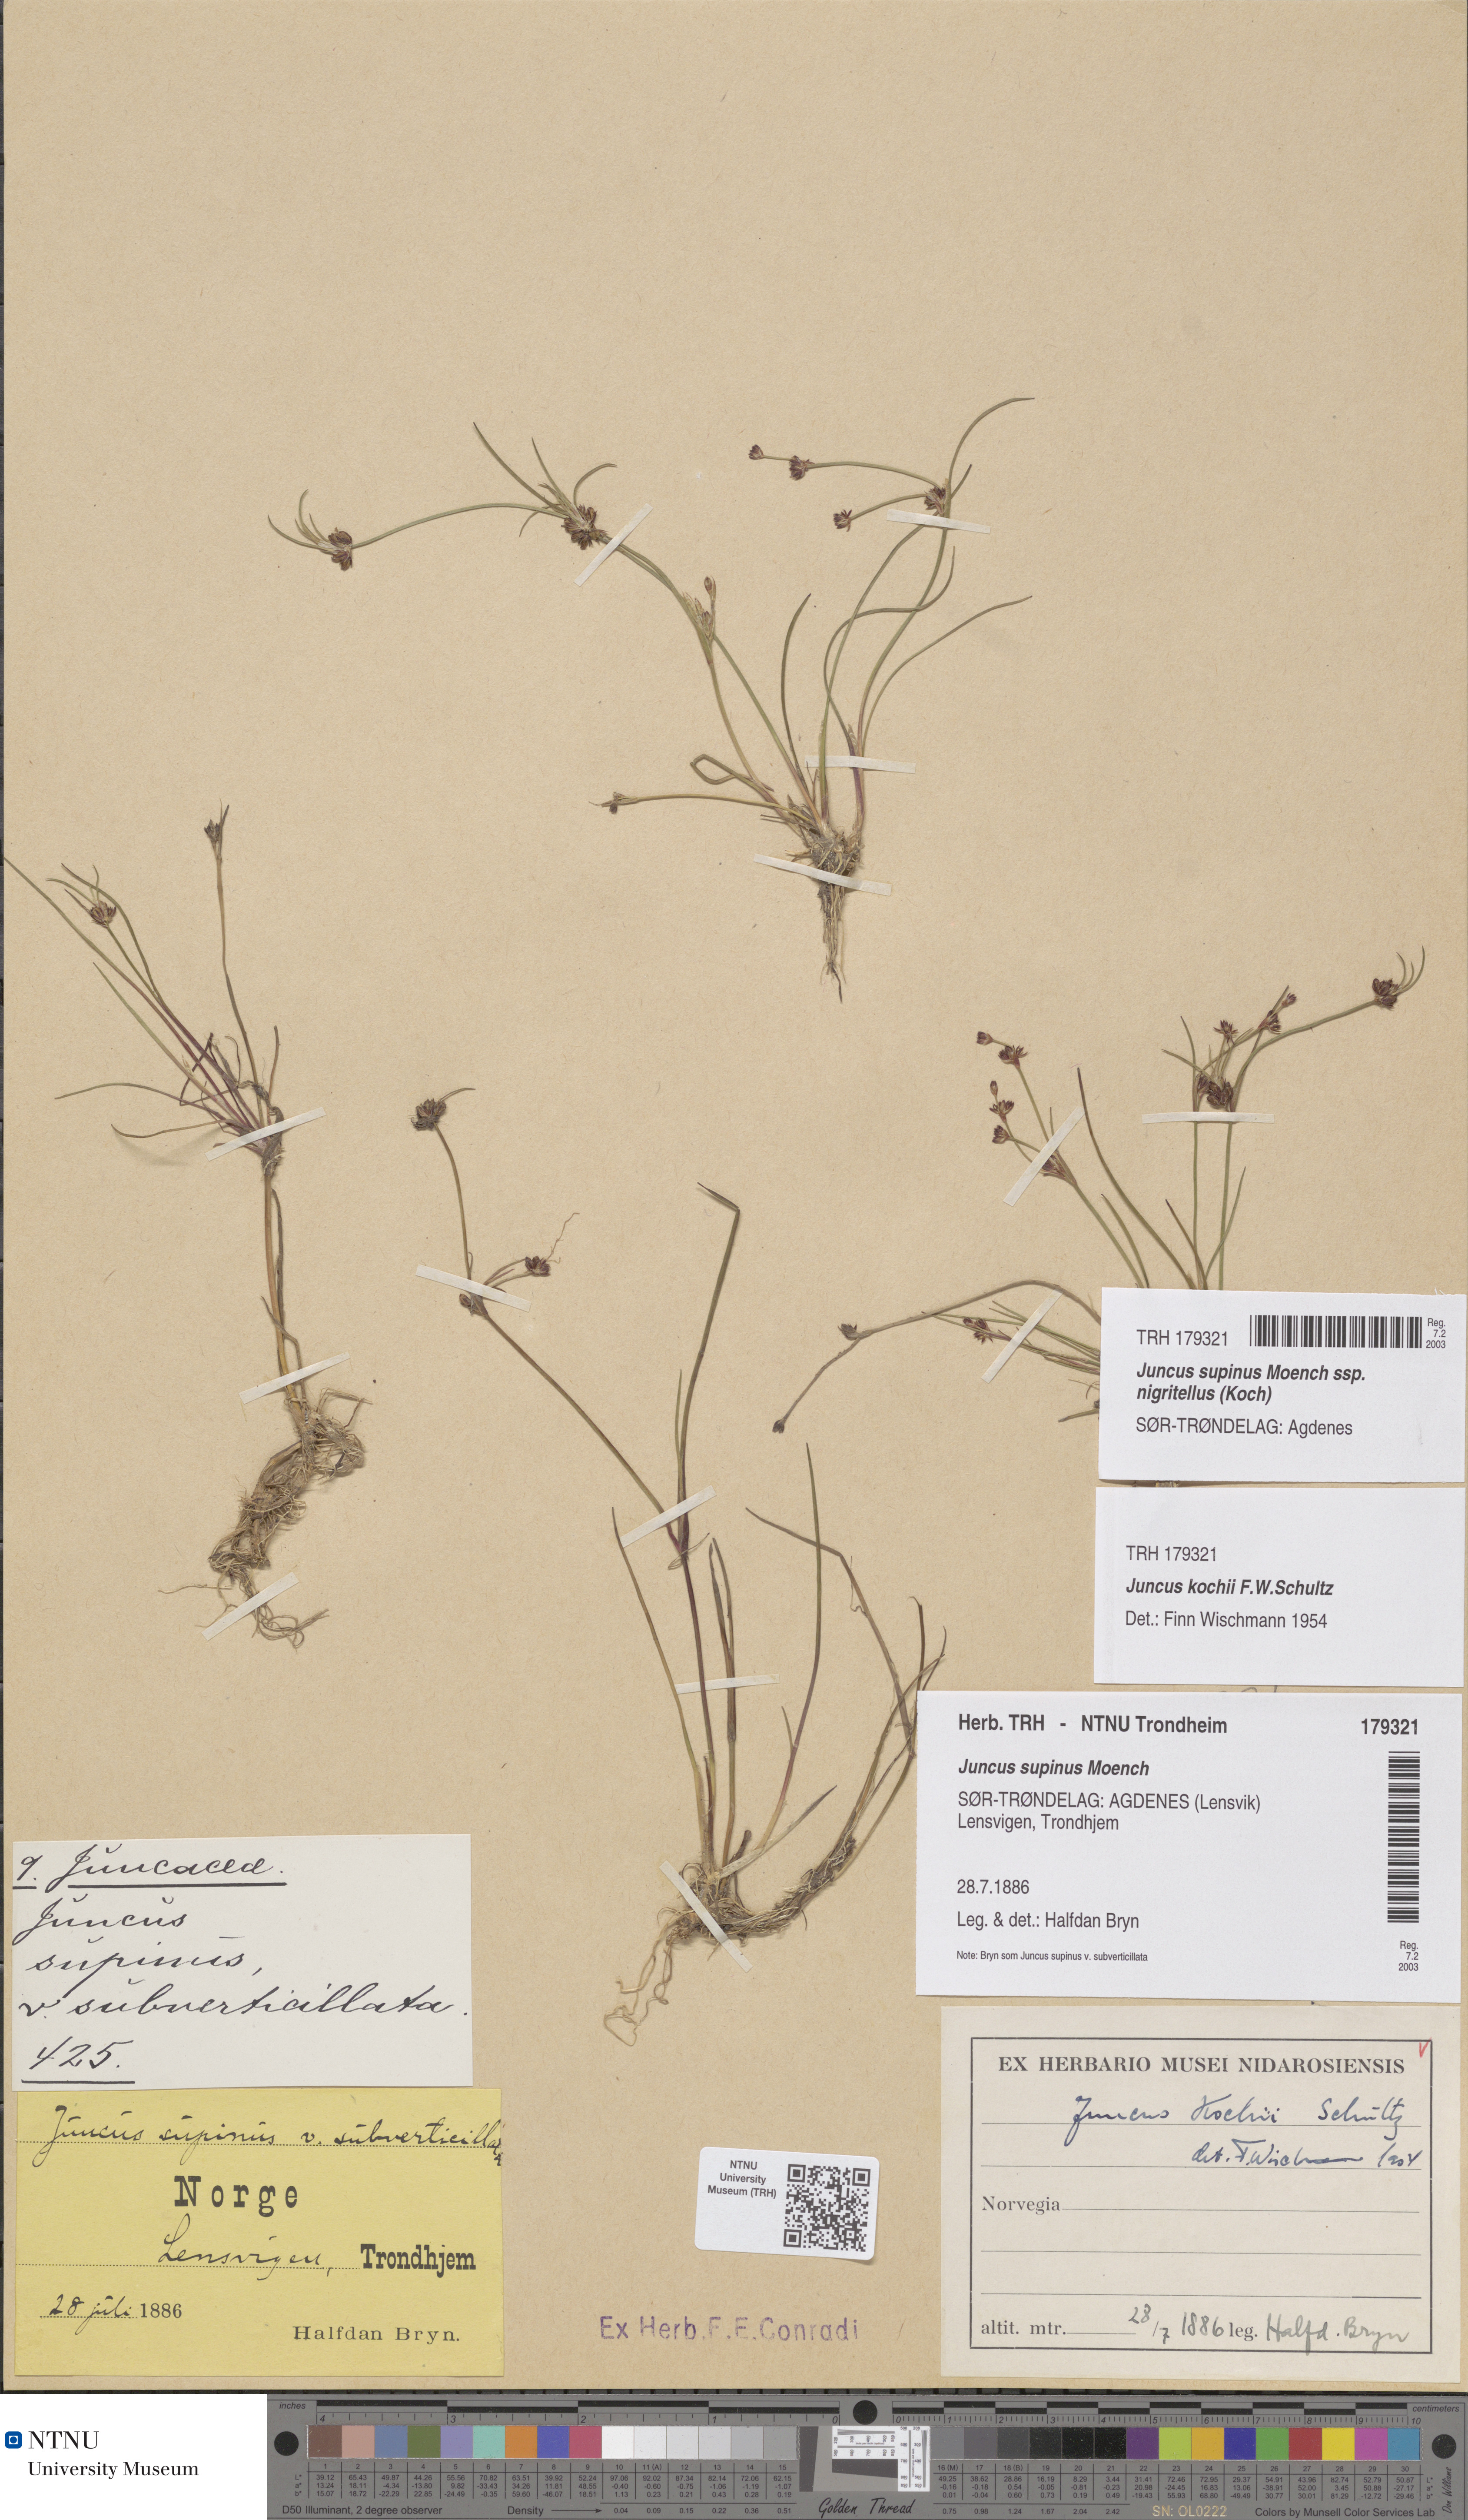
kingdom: Plantae
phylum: Tracheophyta
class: Liliopsida
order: Poales
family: Juncaceae
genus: Juncus
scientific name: Juncus bulbosus
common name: Bulbous rush
